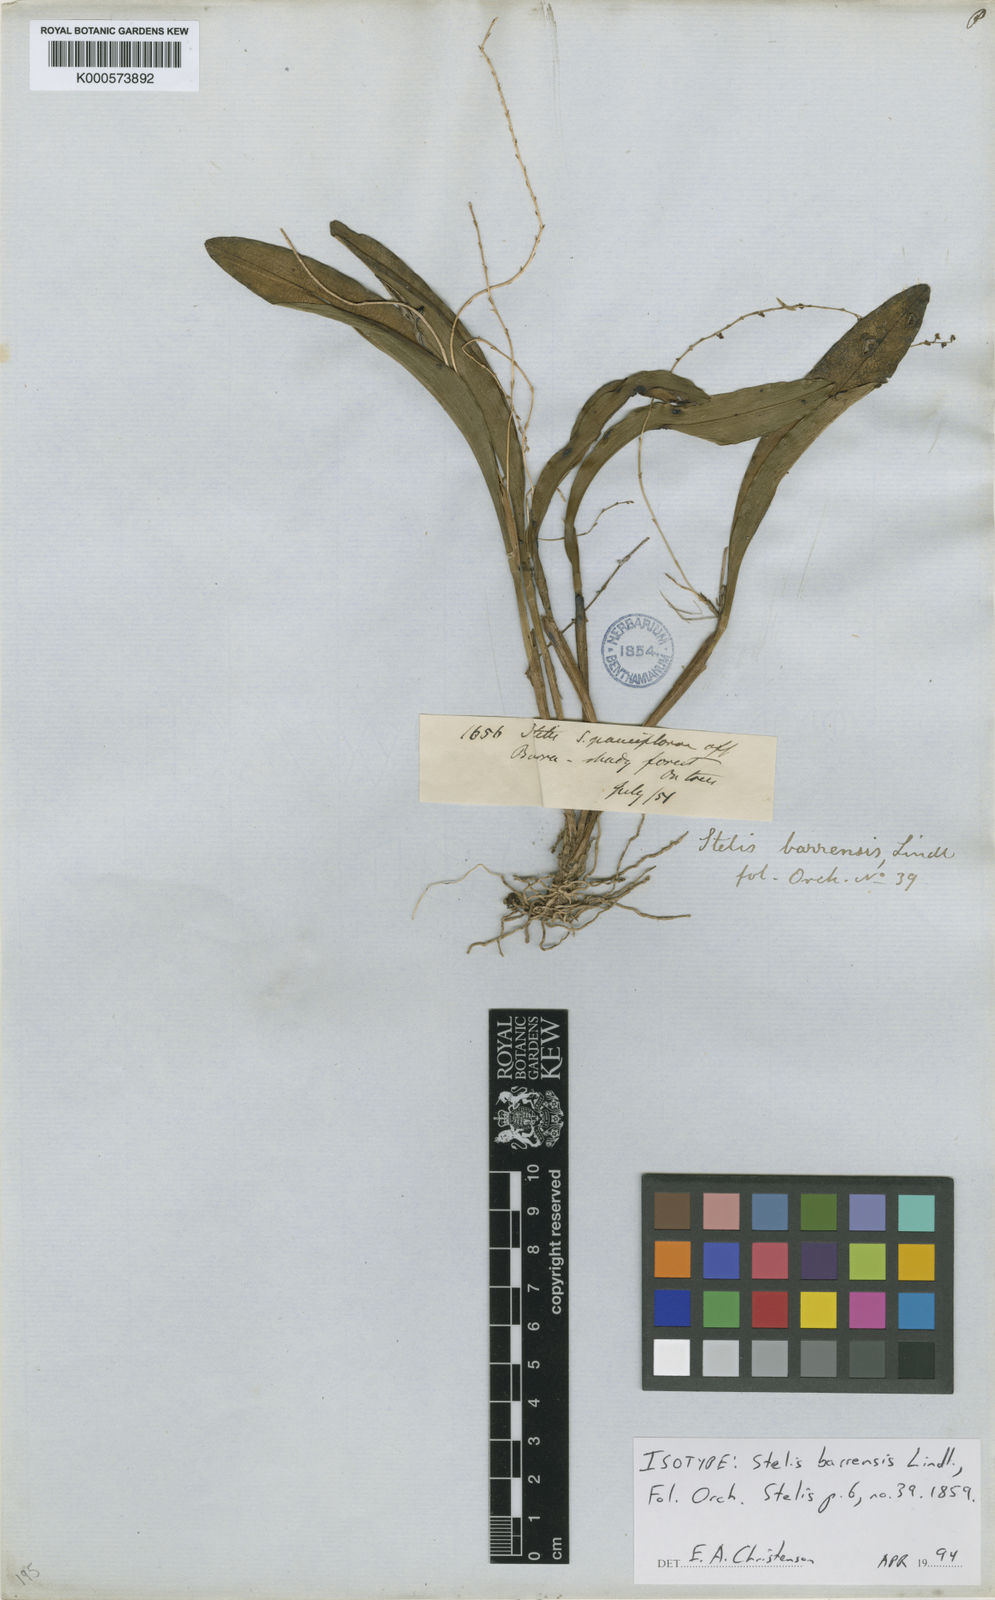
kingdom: Plantae
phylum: Tracheophyta
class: Liliopsida
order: Asparagales
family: Orchidaceae
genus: Stelis
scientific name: Stelis papaquerensis
